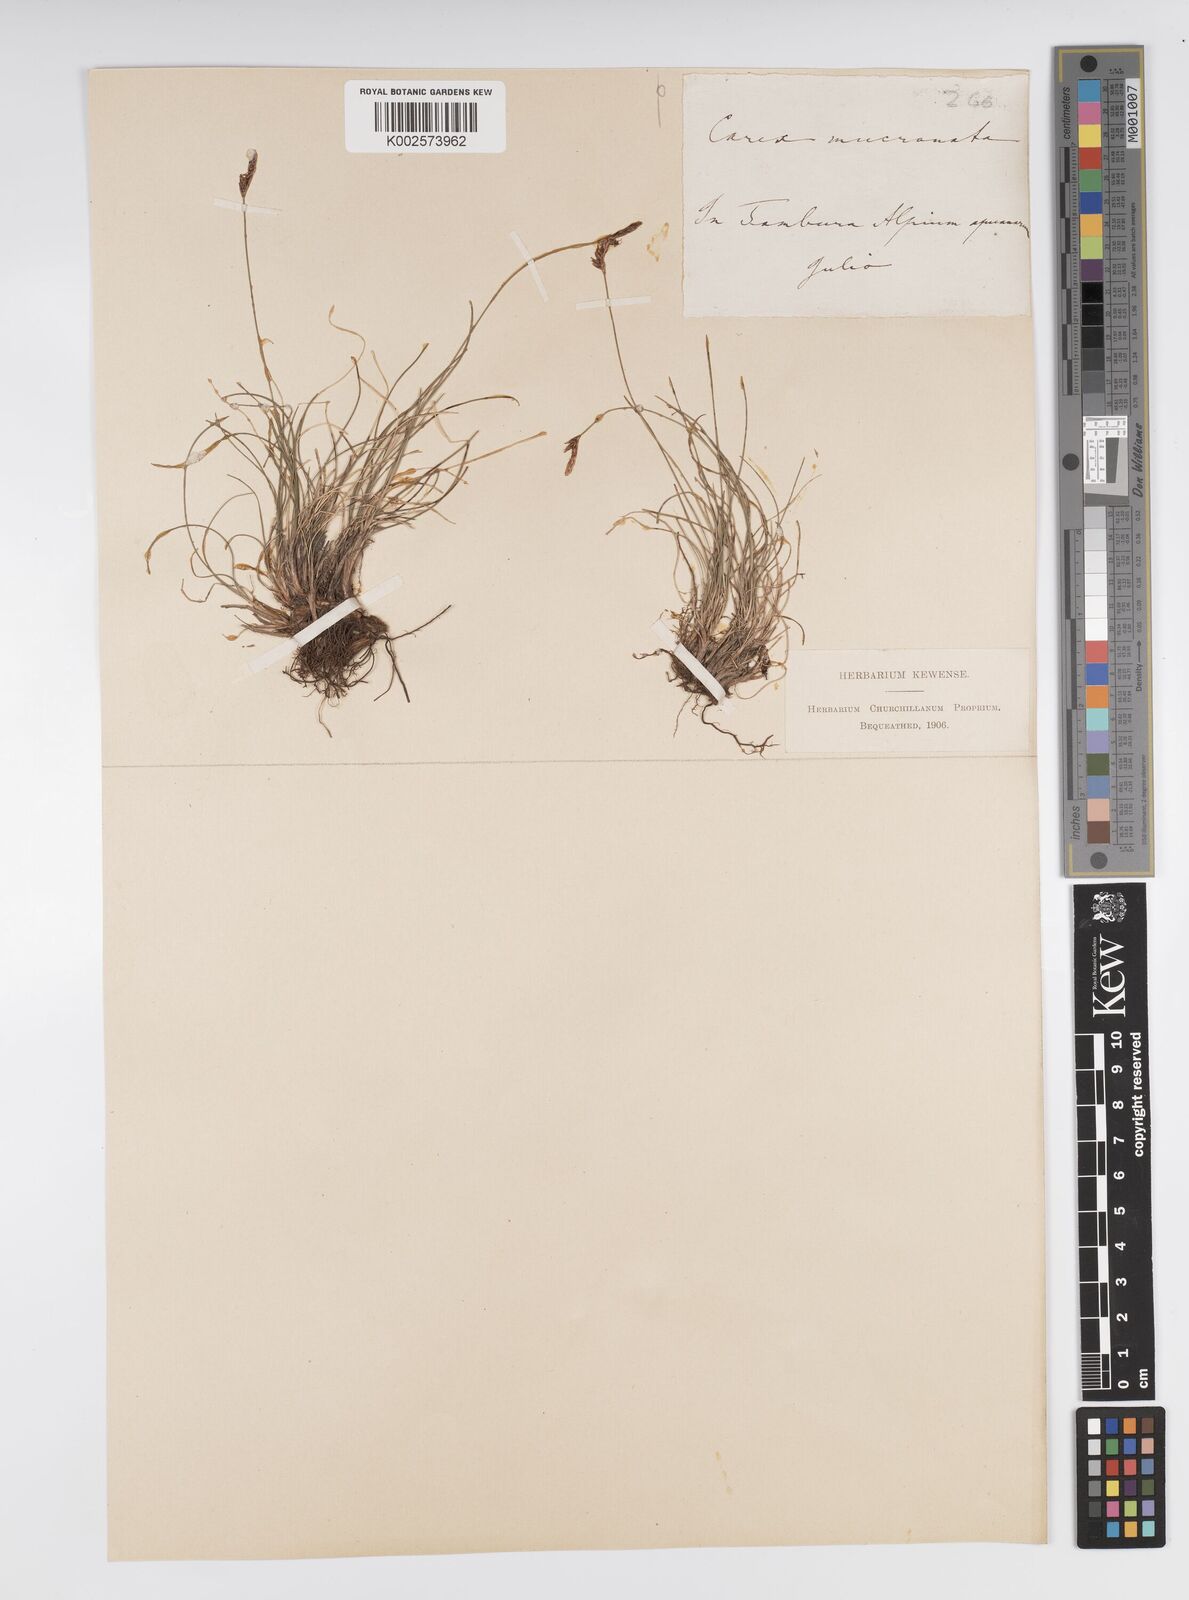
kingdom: Plantae
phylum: Tracheophyta
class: Liliopsida
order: Poales
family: Cyperaceae
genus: Carex
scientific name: Carex mucronata
